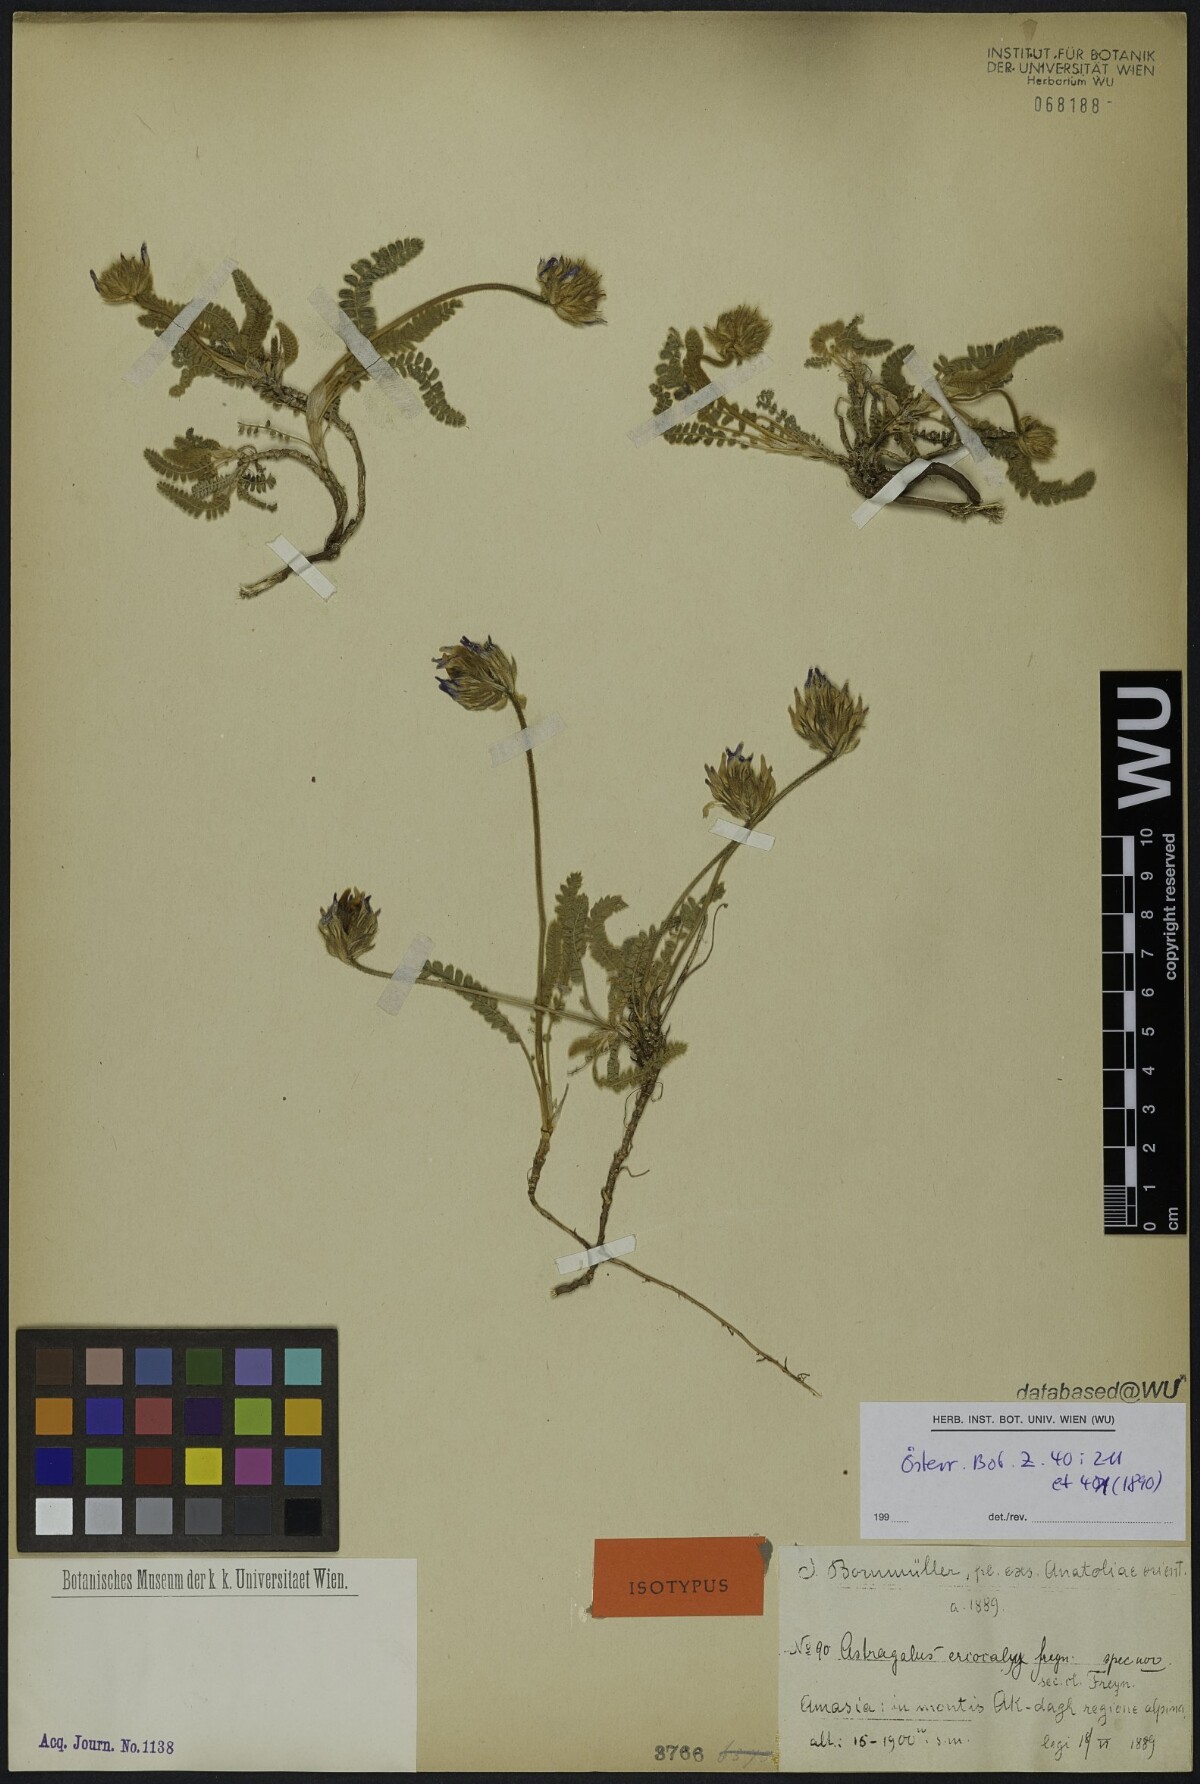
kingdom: Plantae
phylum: Tracheophyta
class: Magnoliopsida
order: Fabales
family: Fabaceae
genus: Astragalus
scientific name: Astragalus densifolius
